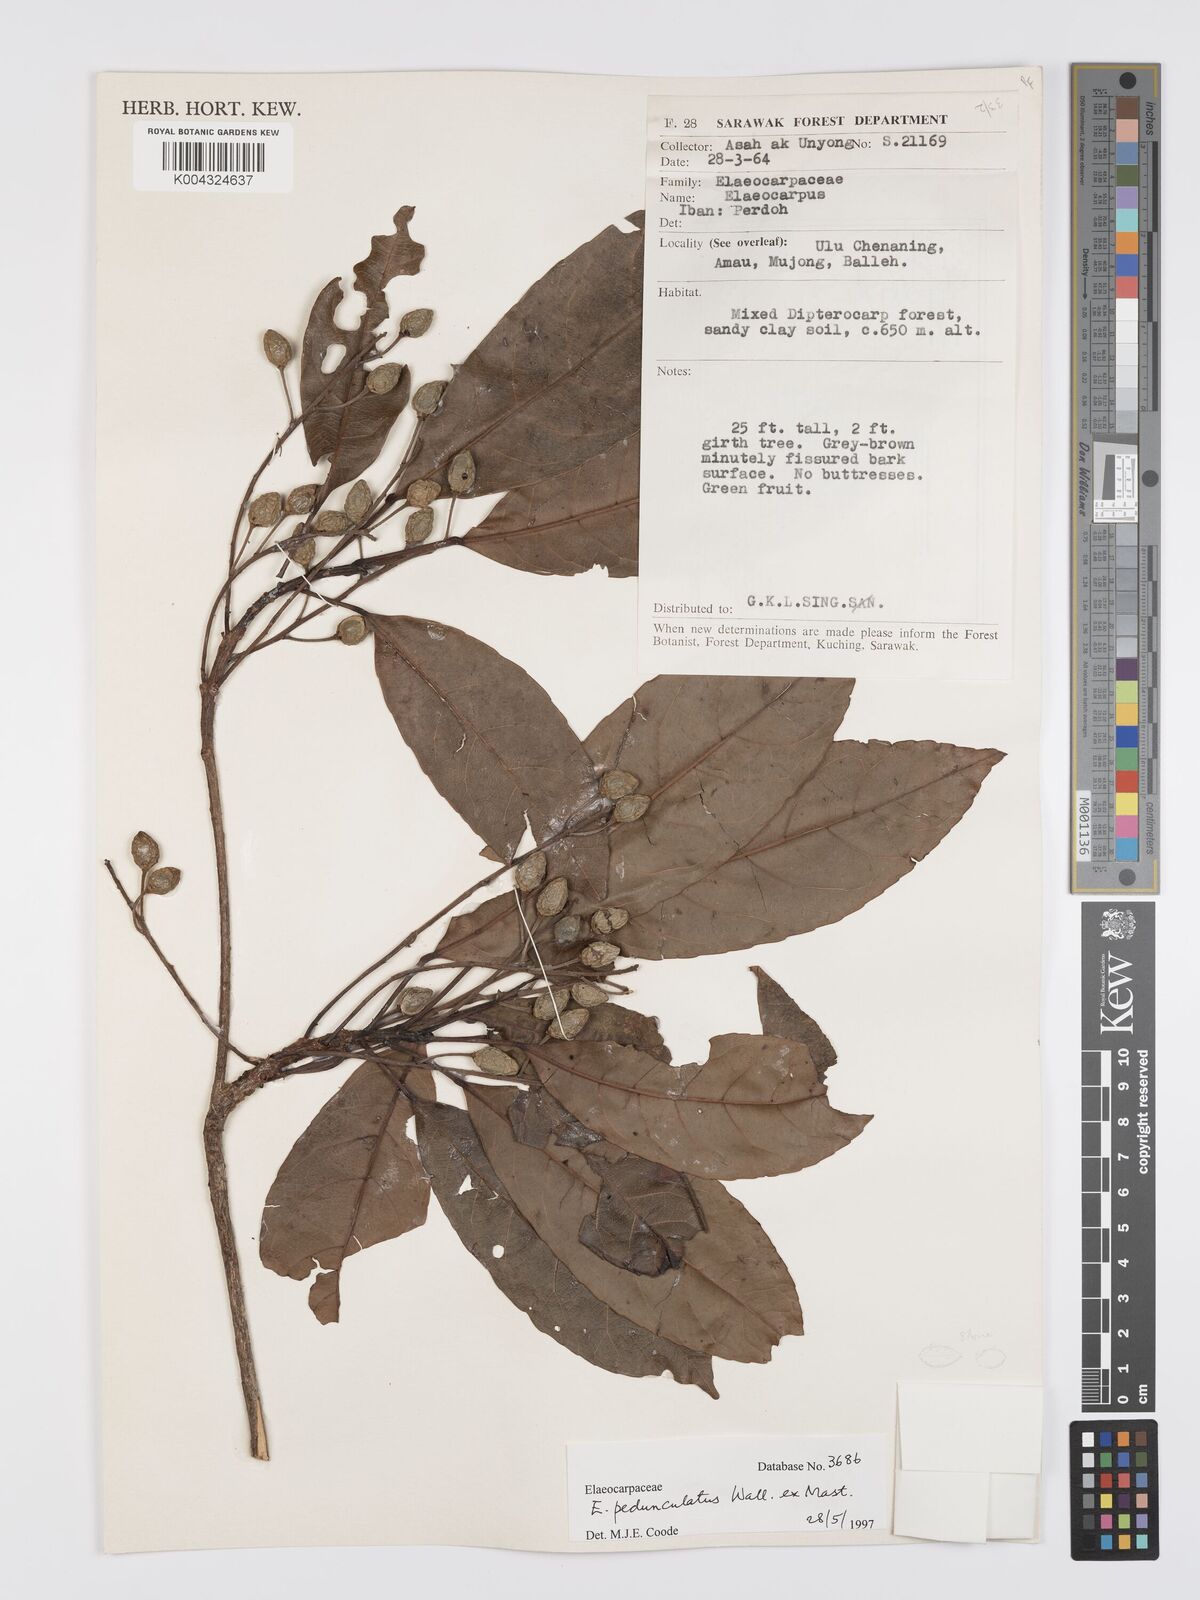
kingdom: Plantae
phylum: Tracheophyta
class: Magnoliopsida
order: Oxalidales
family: Elaeocarpaceae
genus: Elaeocarpus
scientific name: Elaeocarpus pedunculatus
